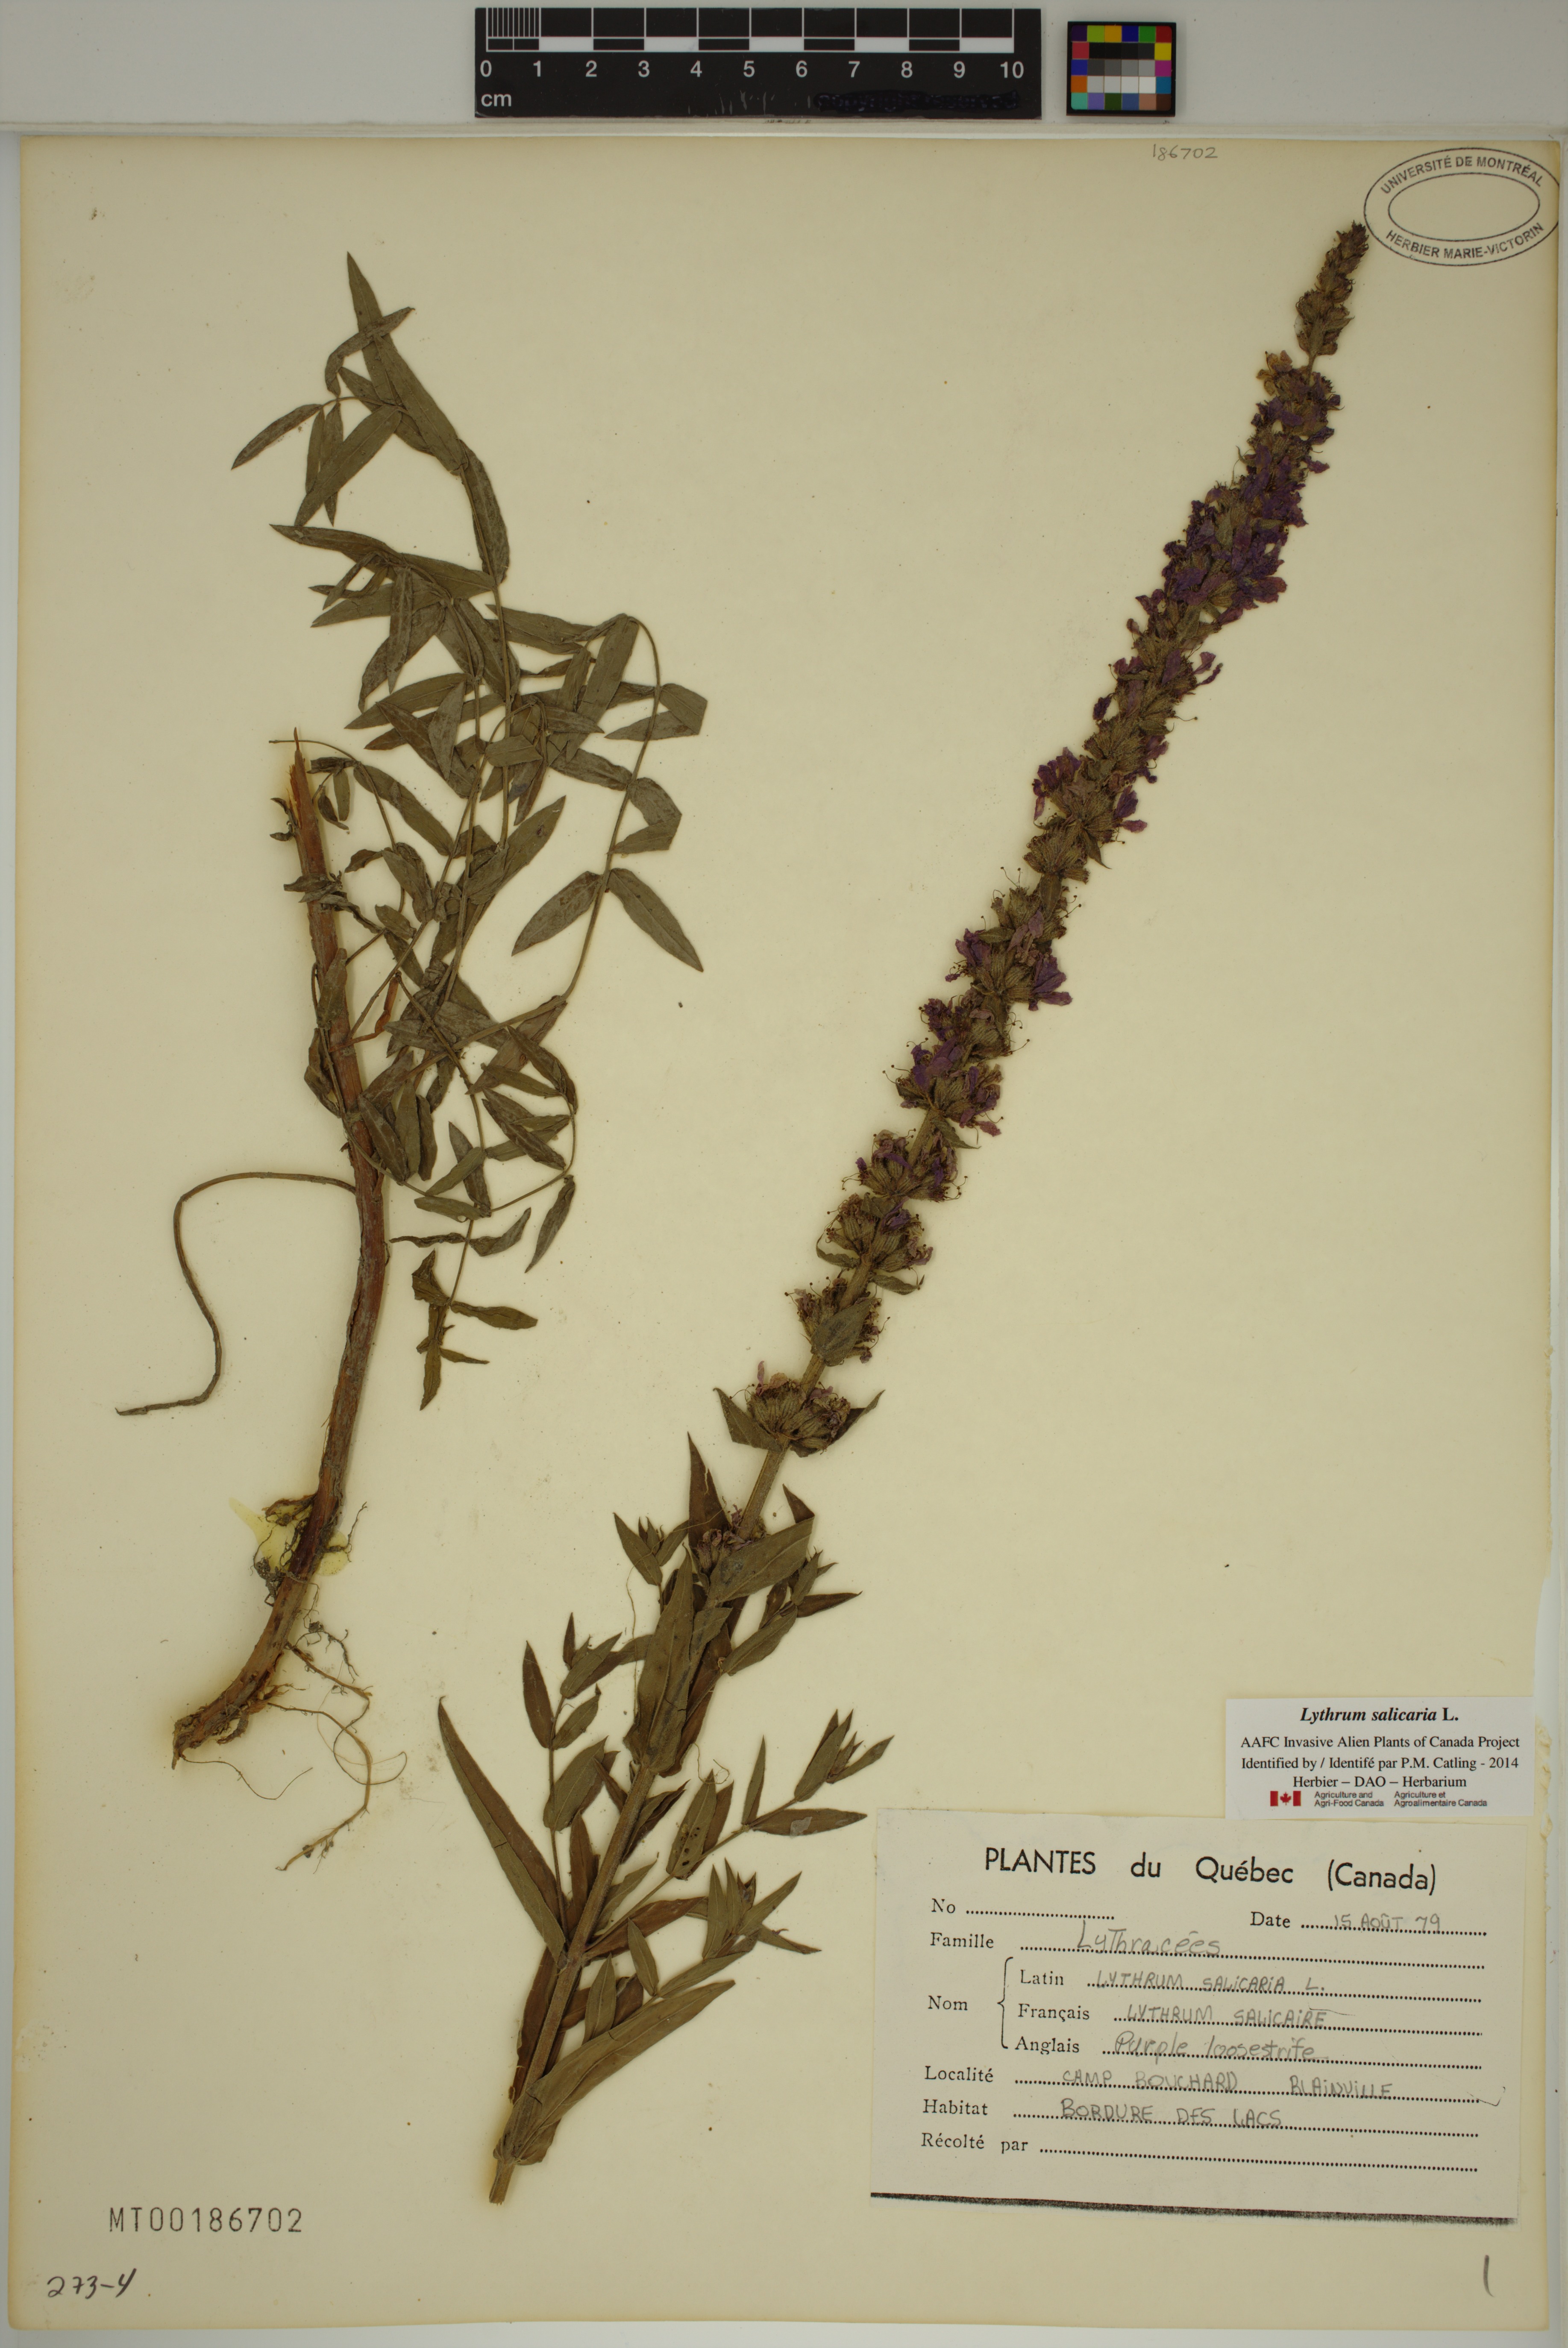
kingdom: Plantae
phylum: Tracheophyta
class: Magnoliopsida
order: Myrtales
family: Lythraceae
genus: Lythrum
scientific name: Lythrum salicaria
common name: Purple loosestrife
